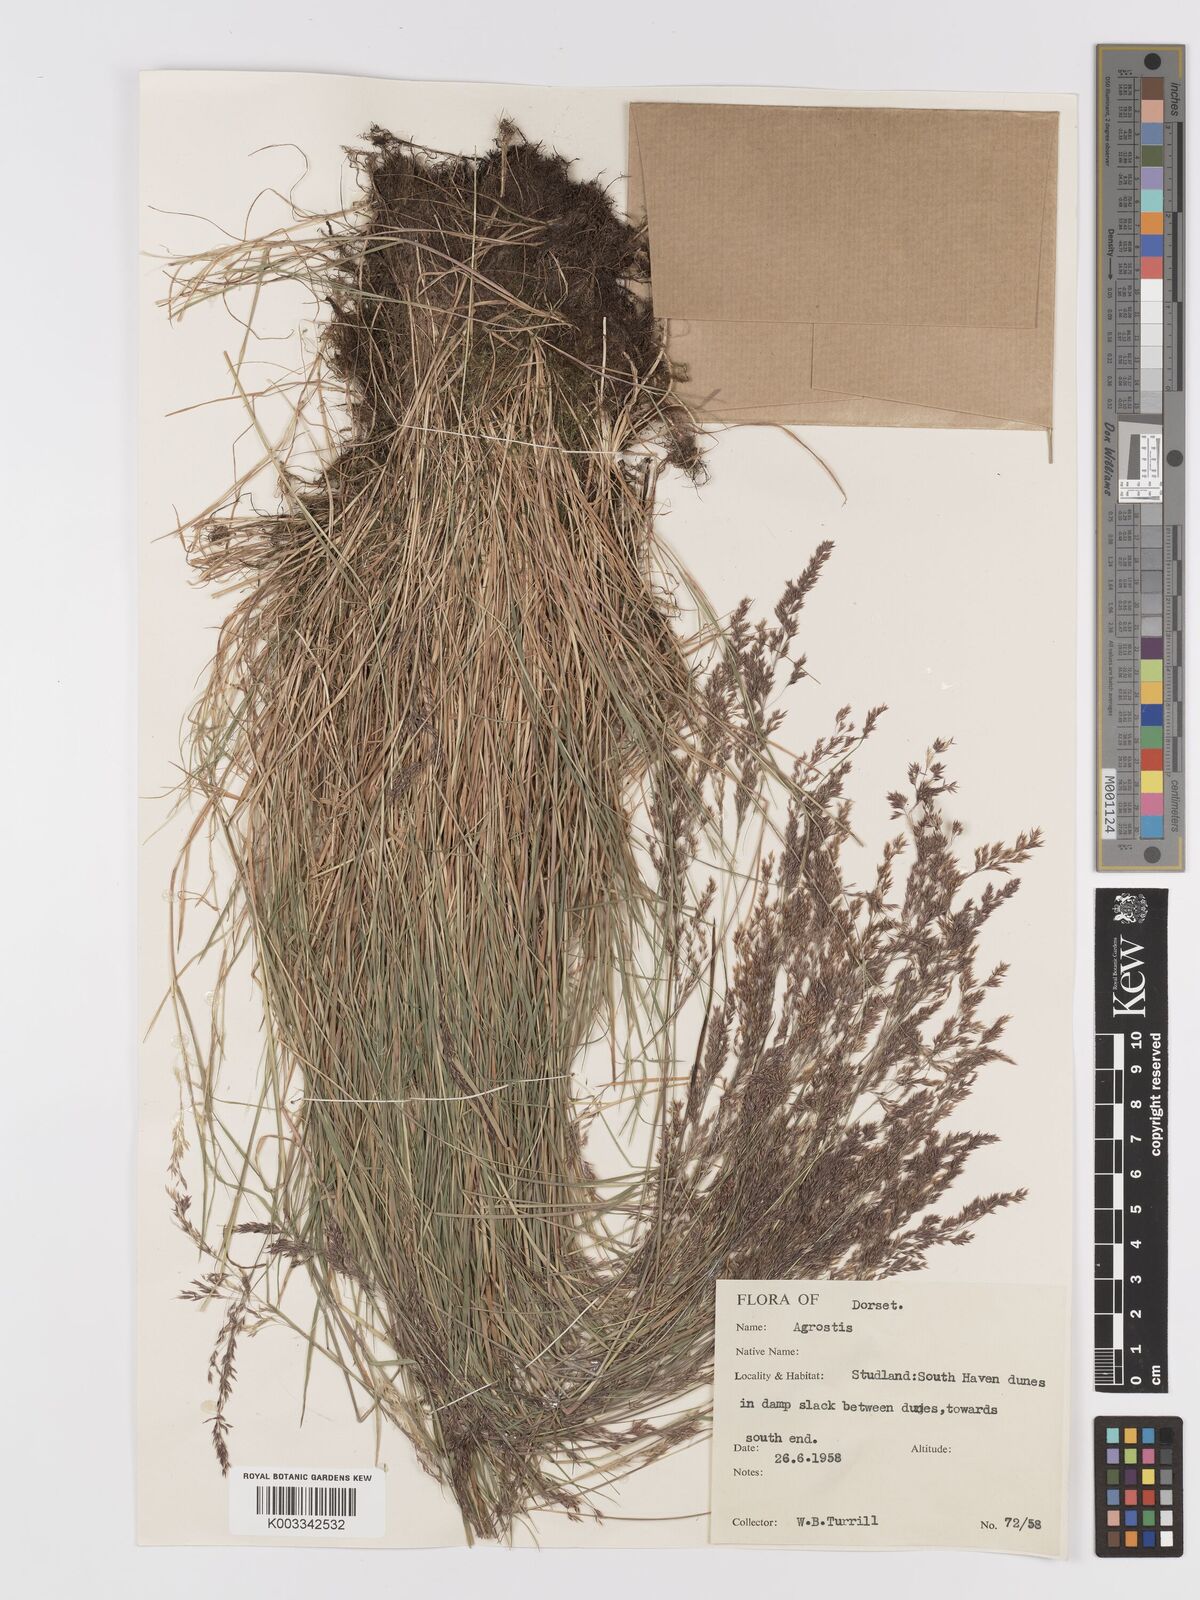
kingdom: Plantae
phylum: Tracheophyta
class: Liliopsida
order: Poales
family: Poaceae
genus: Agrostis
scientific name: Agrostis
